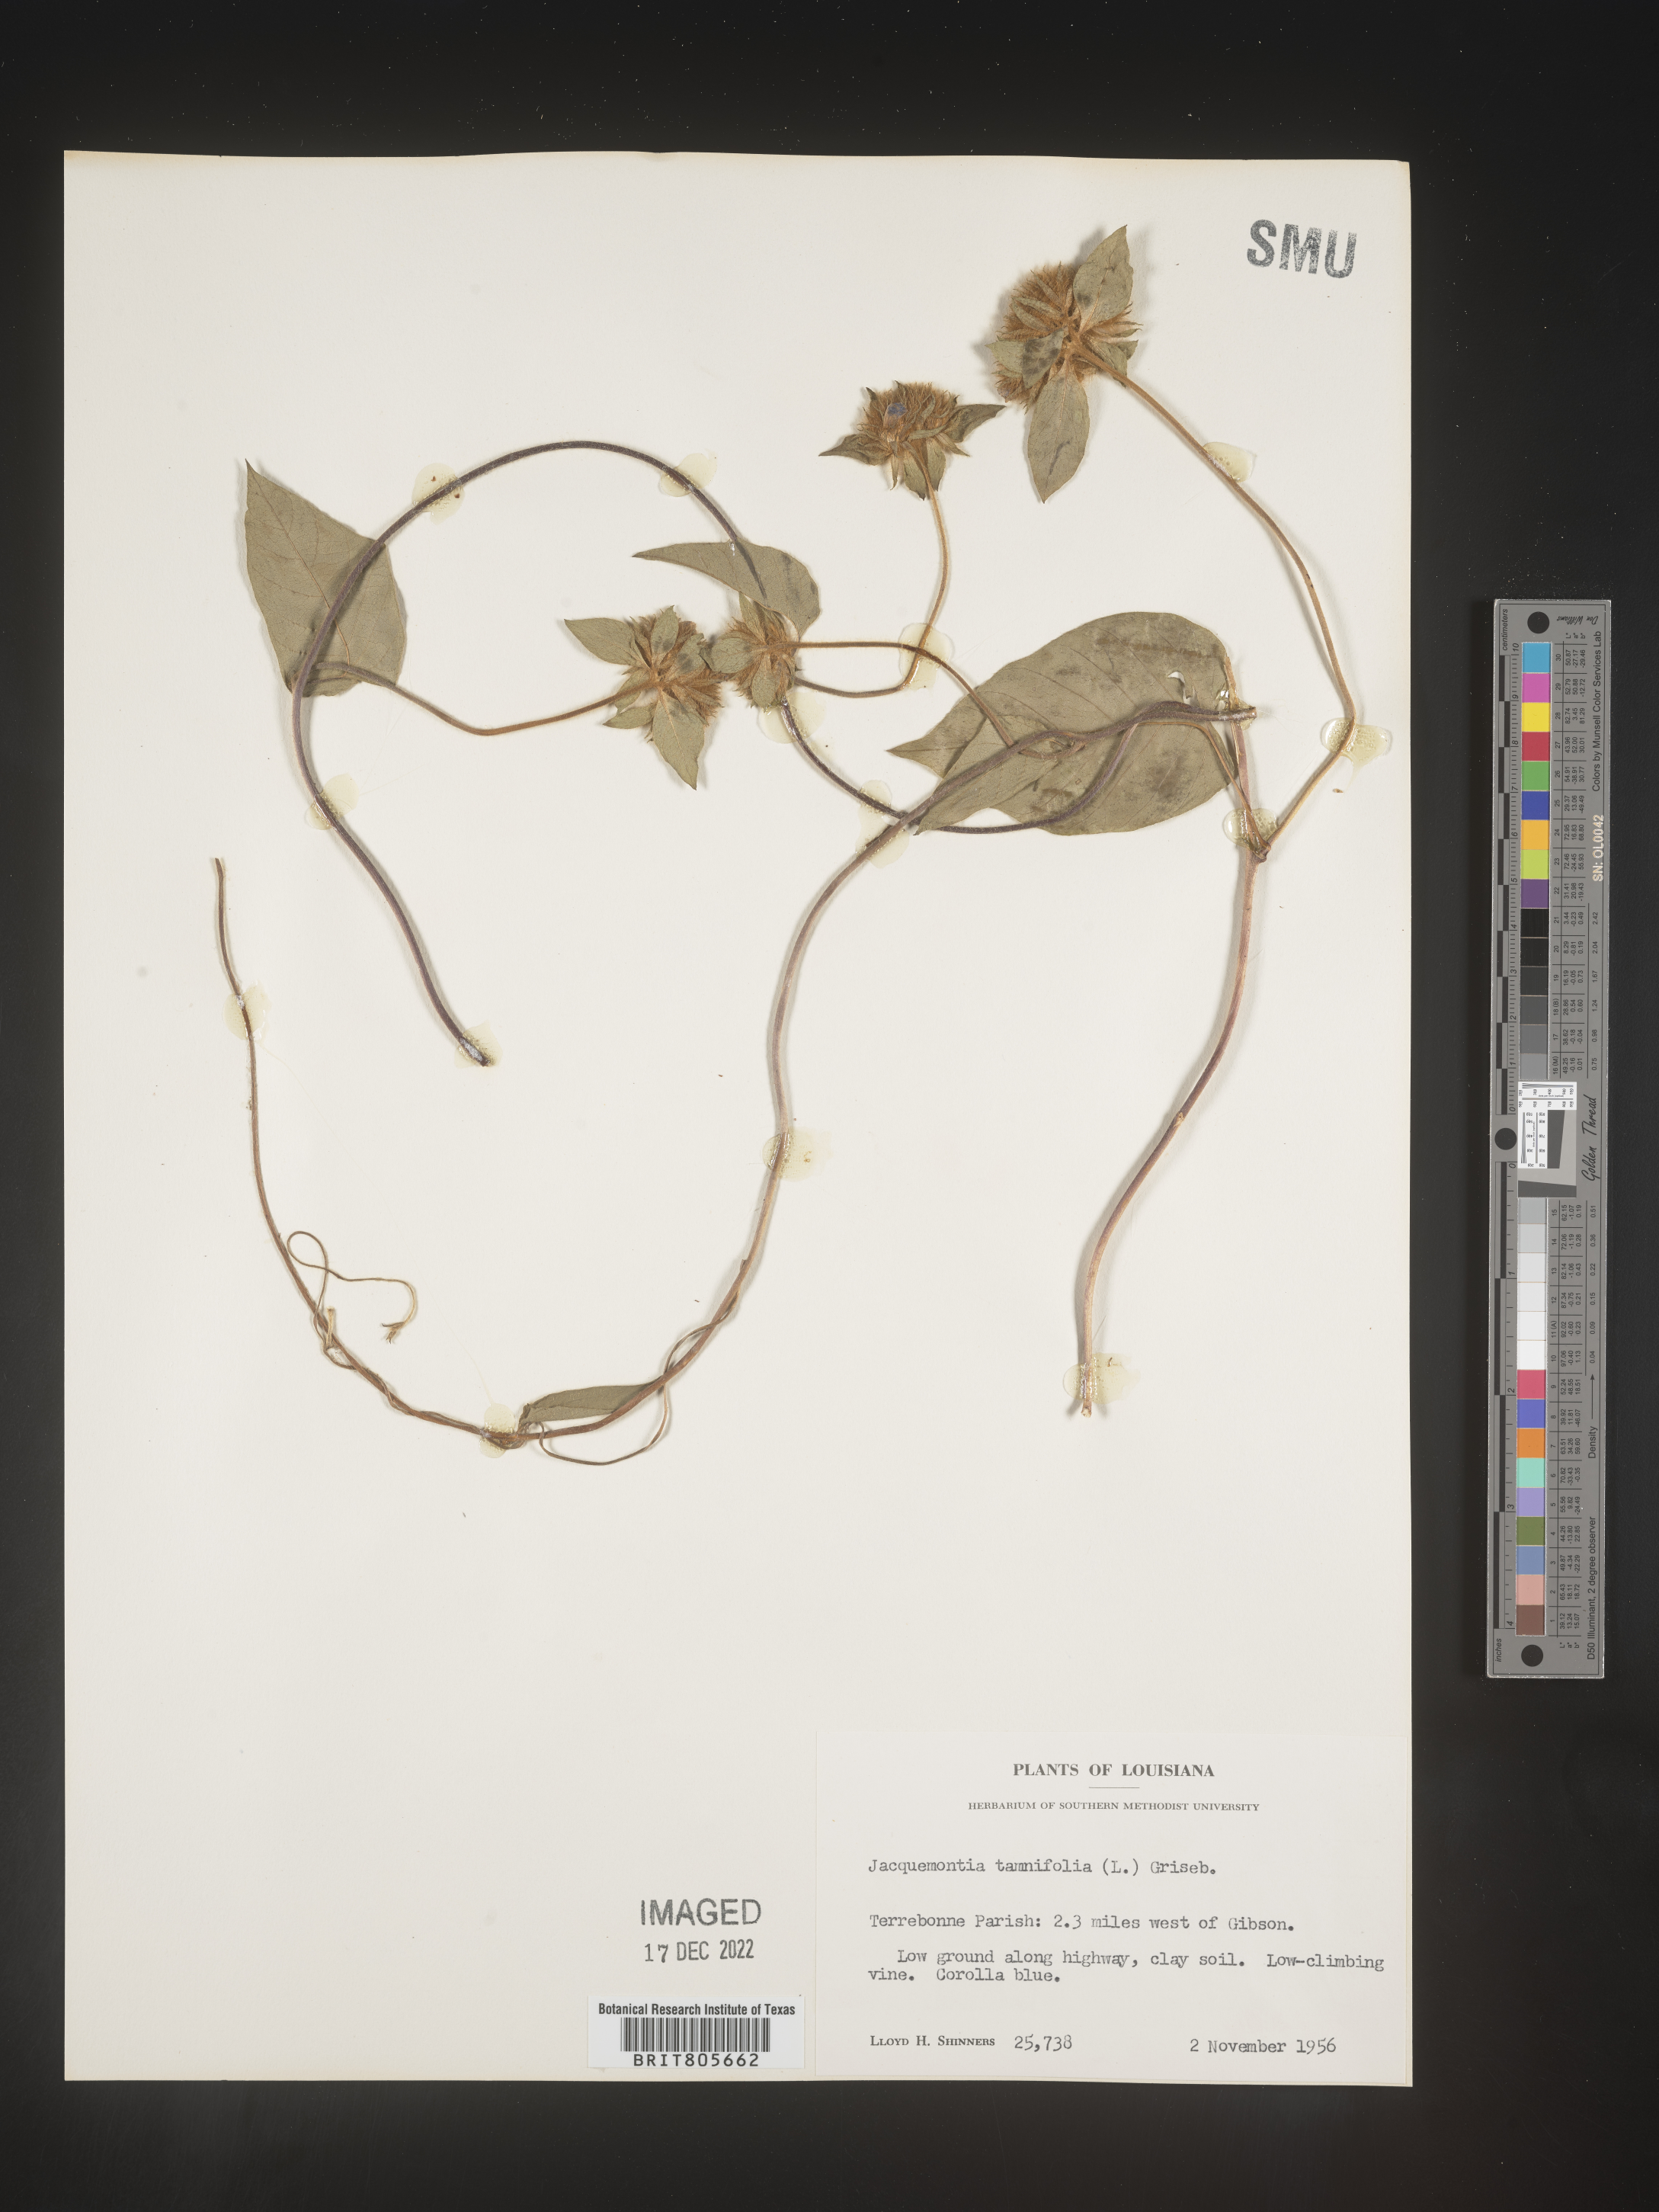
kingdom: Plantae
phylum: Tracheophyta
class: Magnoliopsida
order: Solanales
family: Convolvulaceae
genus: Jacquemontia
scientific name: Jacquemontia tamnifolia
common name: Hairy clustervine
